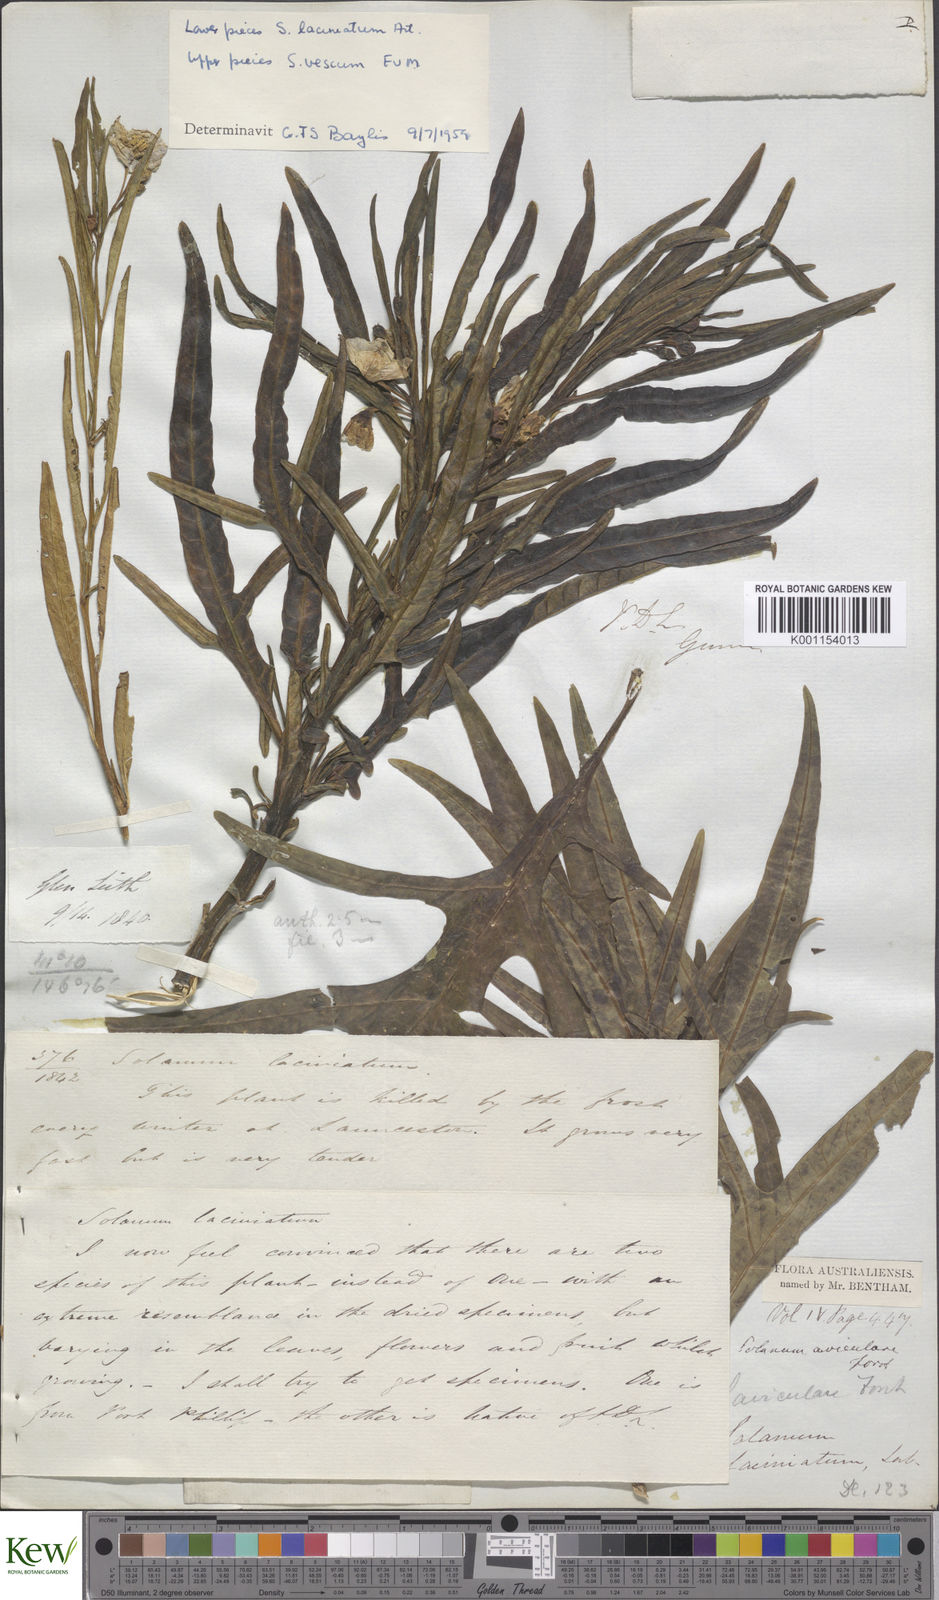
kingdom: Plantae
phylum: Tracheophyta
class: Magnoliopsida
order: Solanales
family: Solanaceae
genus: Solanum
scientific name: Solanum laciniatum
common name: Kangaroo-apple
